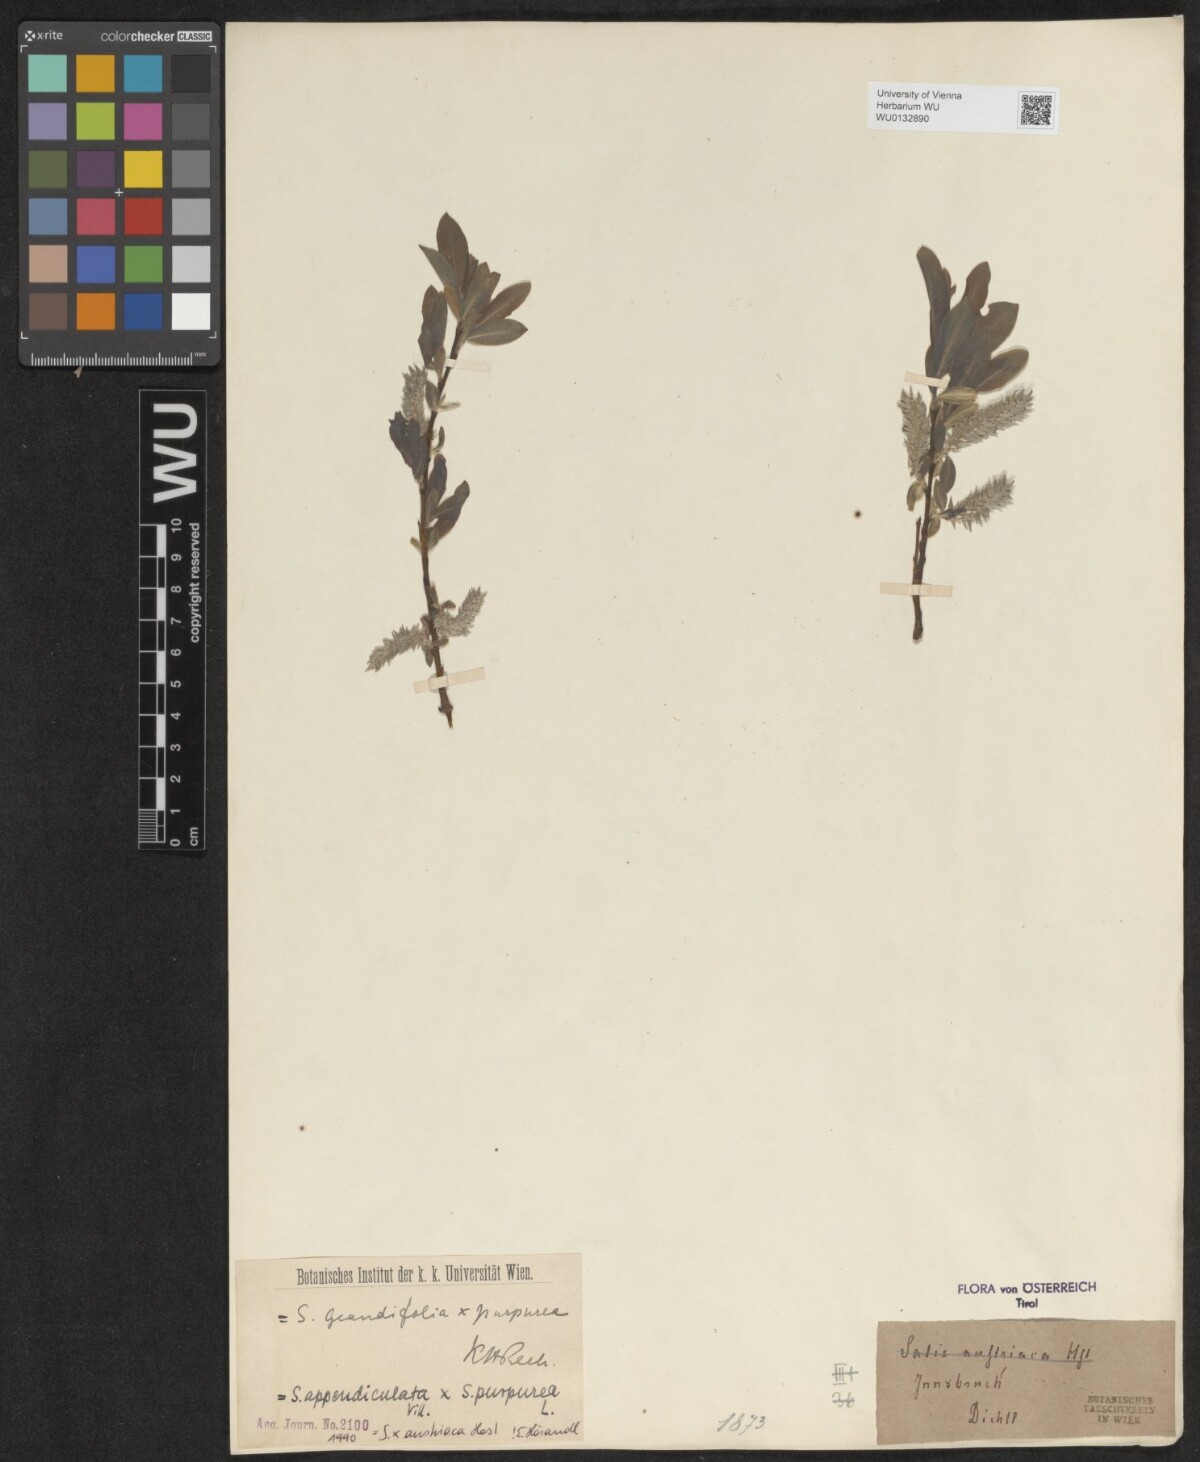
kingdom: Plantae
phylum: Tracheophyta
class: Magnoliopsida
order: Malpighiales
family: Salicaceae
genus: Salix
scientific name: Salix austriaca
